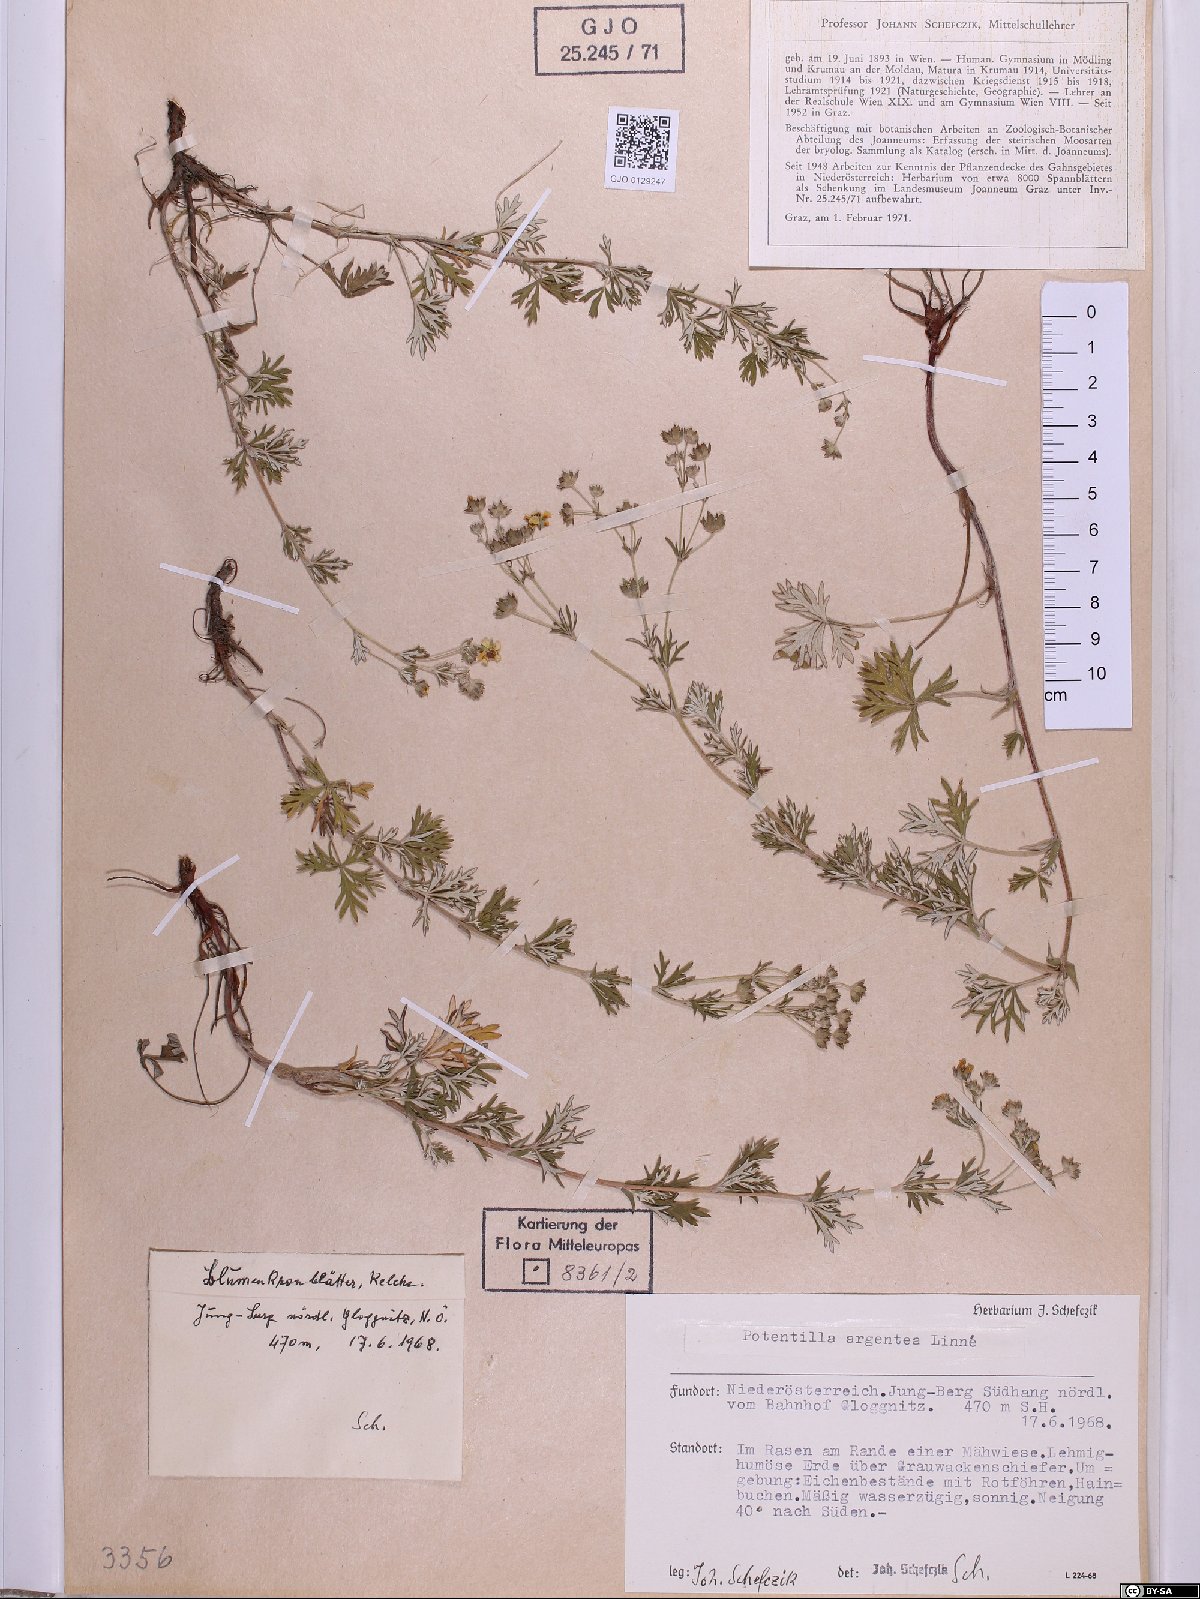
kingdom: Plantae
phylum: Tracheophyta
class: Magnoliopsida
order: Rosales
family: Rosaceae
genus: Potentilla
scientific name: Potentilla argentea
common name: Hoary cinquefoil
